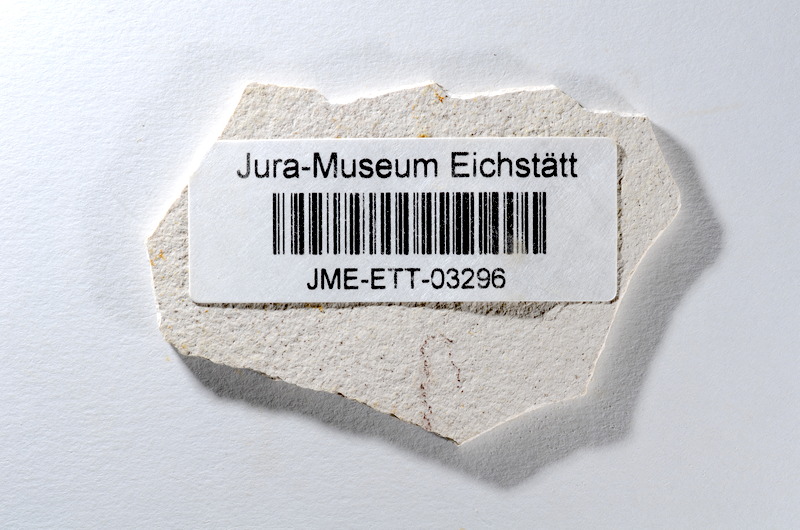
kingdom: Animalia
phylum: Chordata
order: Salmoniformes
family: Orthogonikleithridae
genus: Orthogonikleithrus
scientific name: Orthogonikleithrus hoelli
